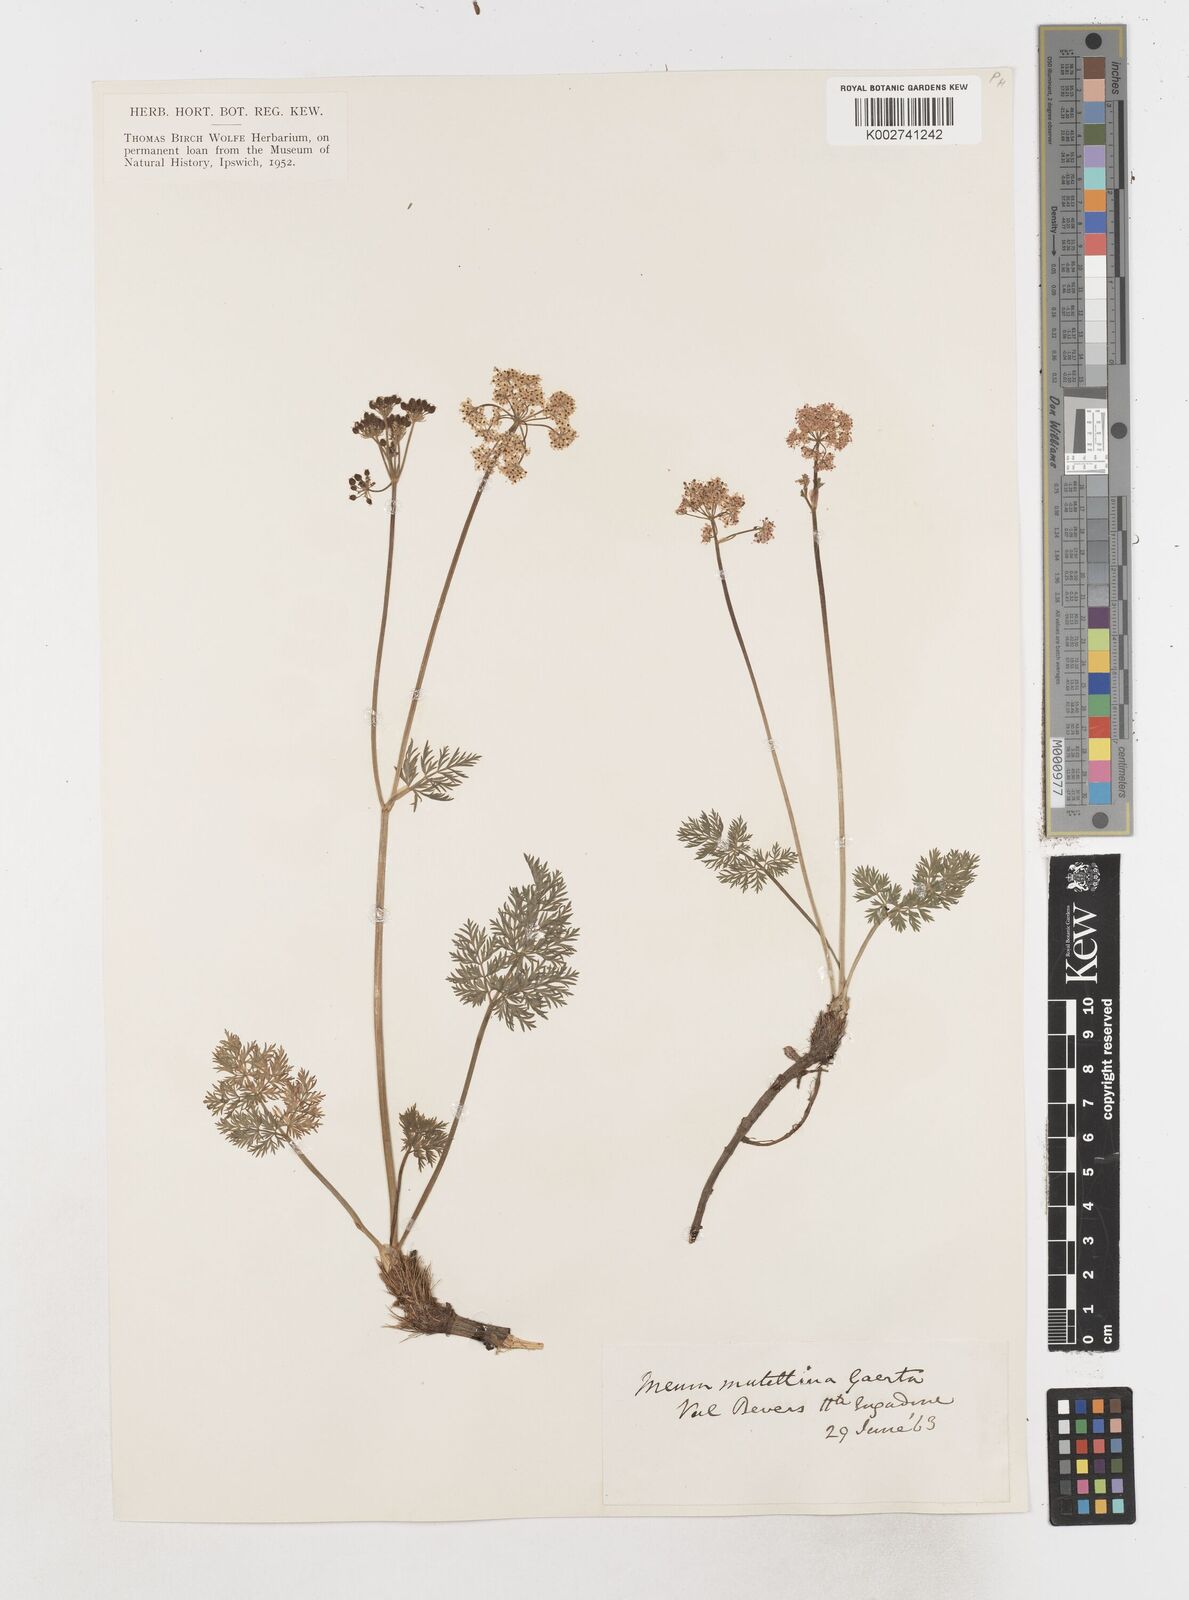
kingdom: Plantae
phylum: Tracheophyta
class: Magnoliopsida
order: Apiales
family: Apiaceae
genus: Mutellina
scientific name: Mutellina adonidifolia
